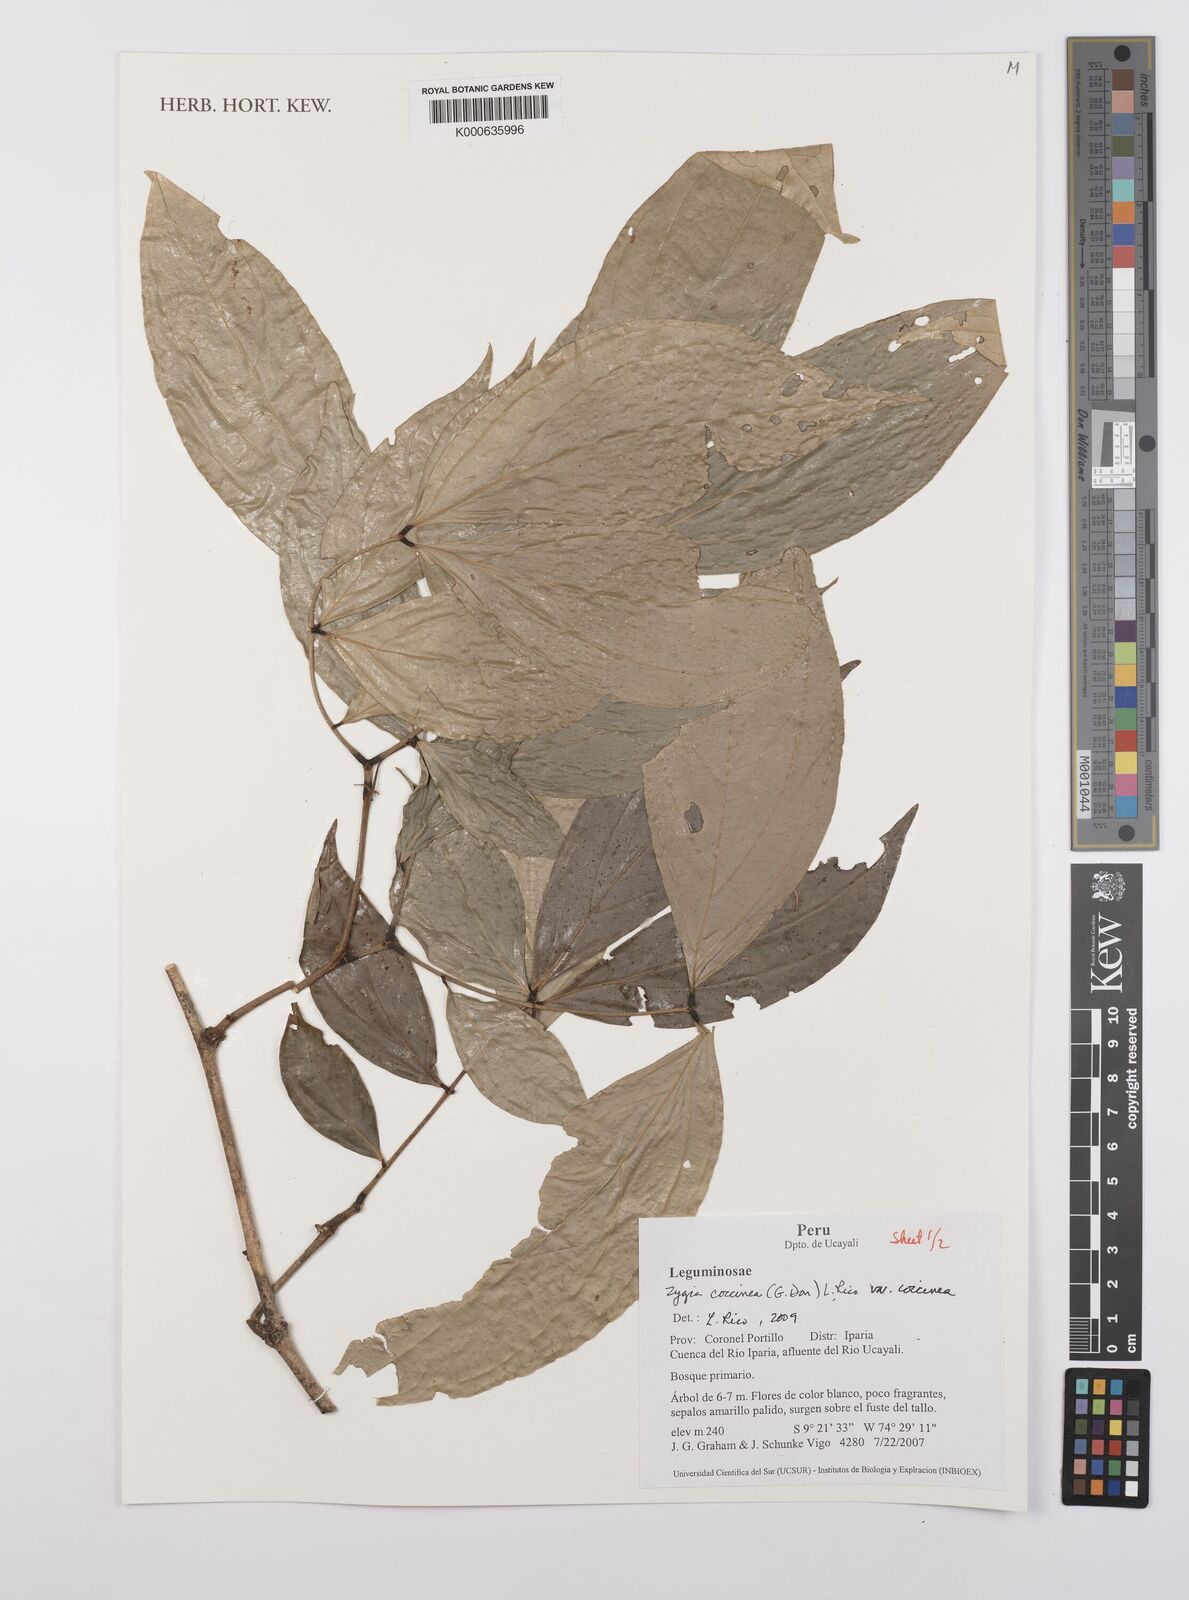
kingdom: Plantae
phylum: Tracheophyta
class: Magnoliopsida
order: Fabales
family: Fabaceae
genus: Zygia
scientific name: Zygia coccinea
